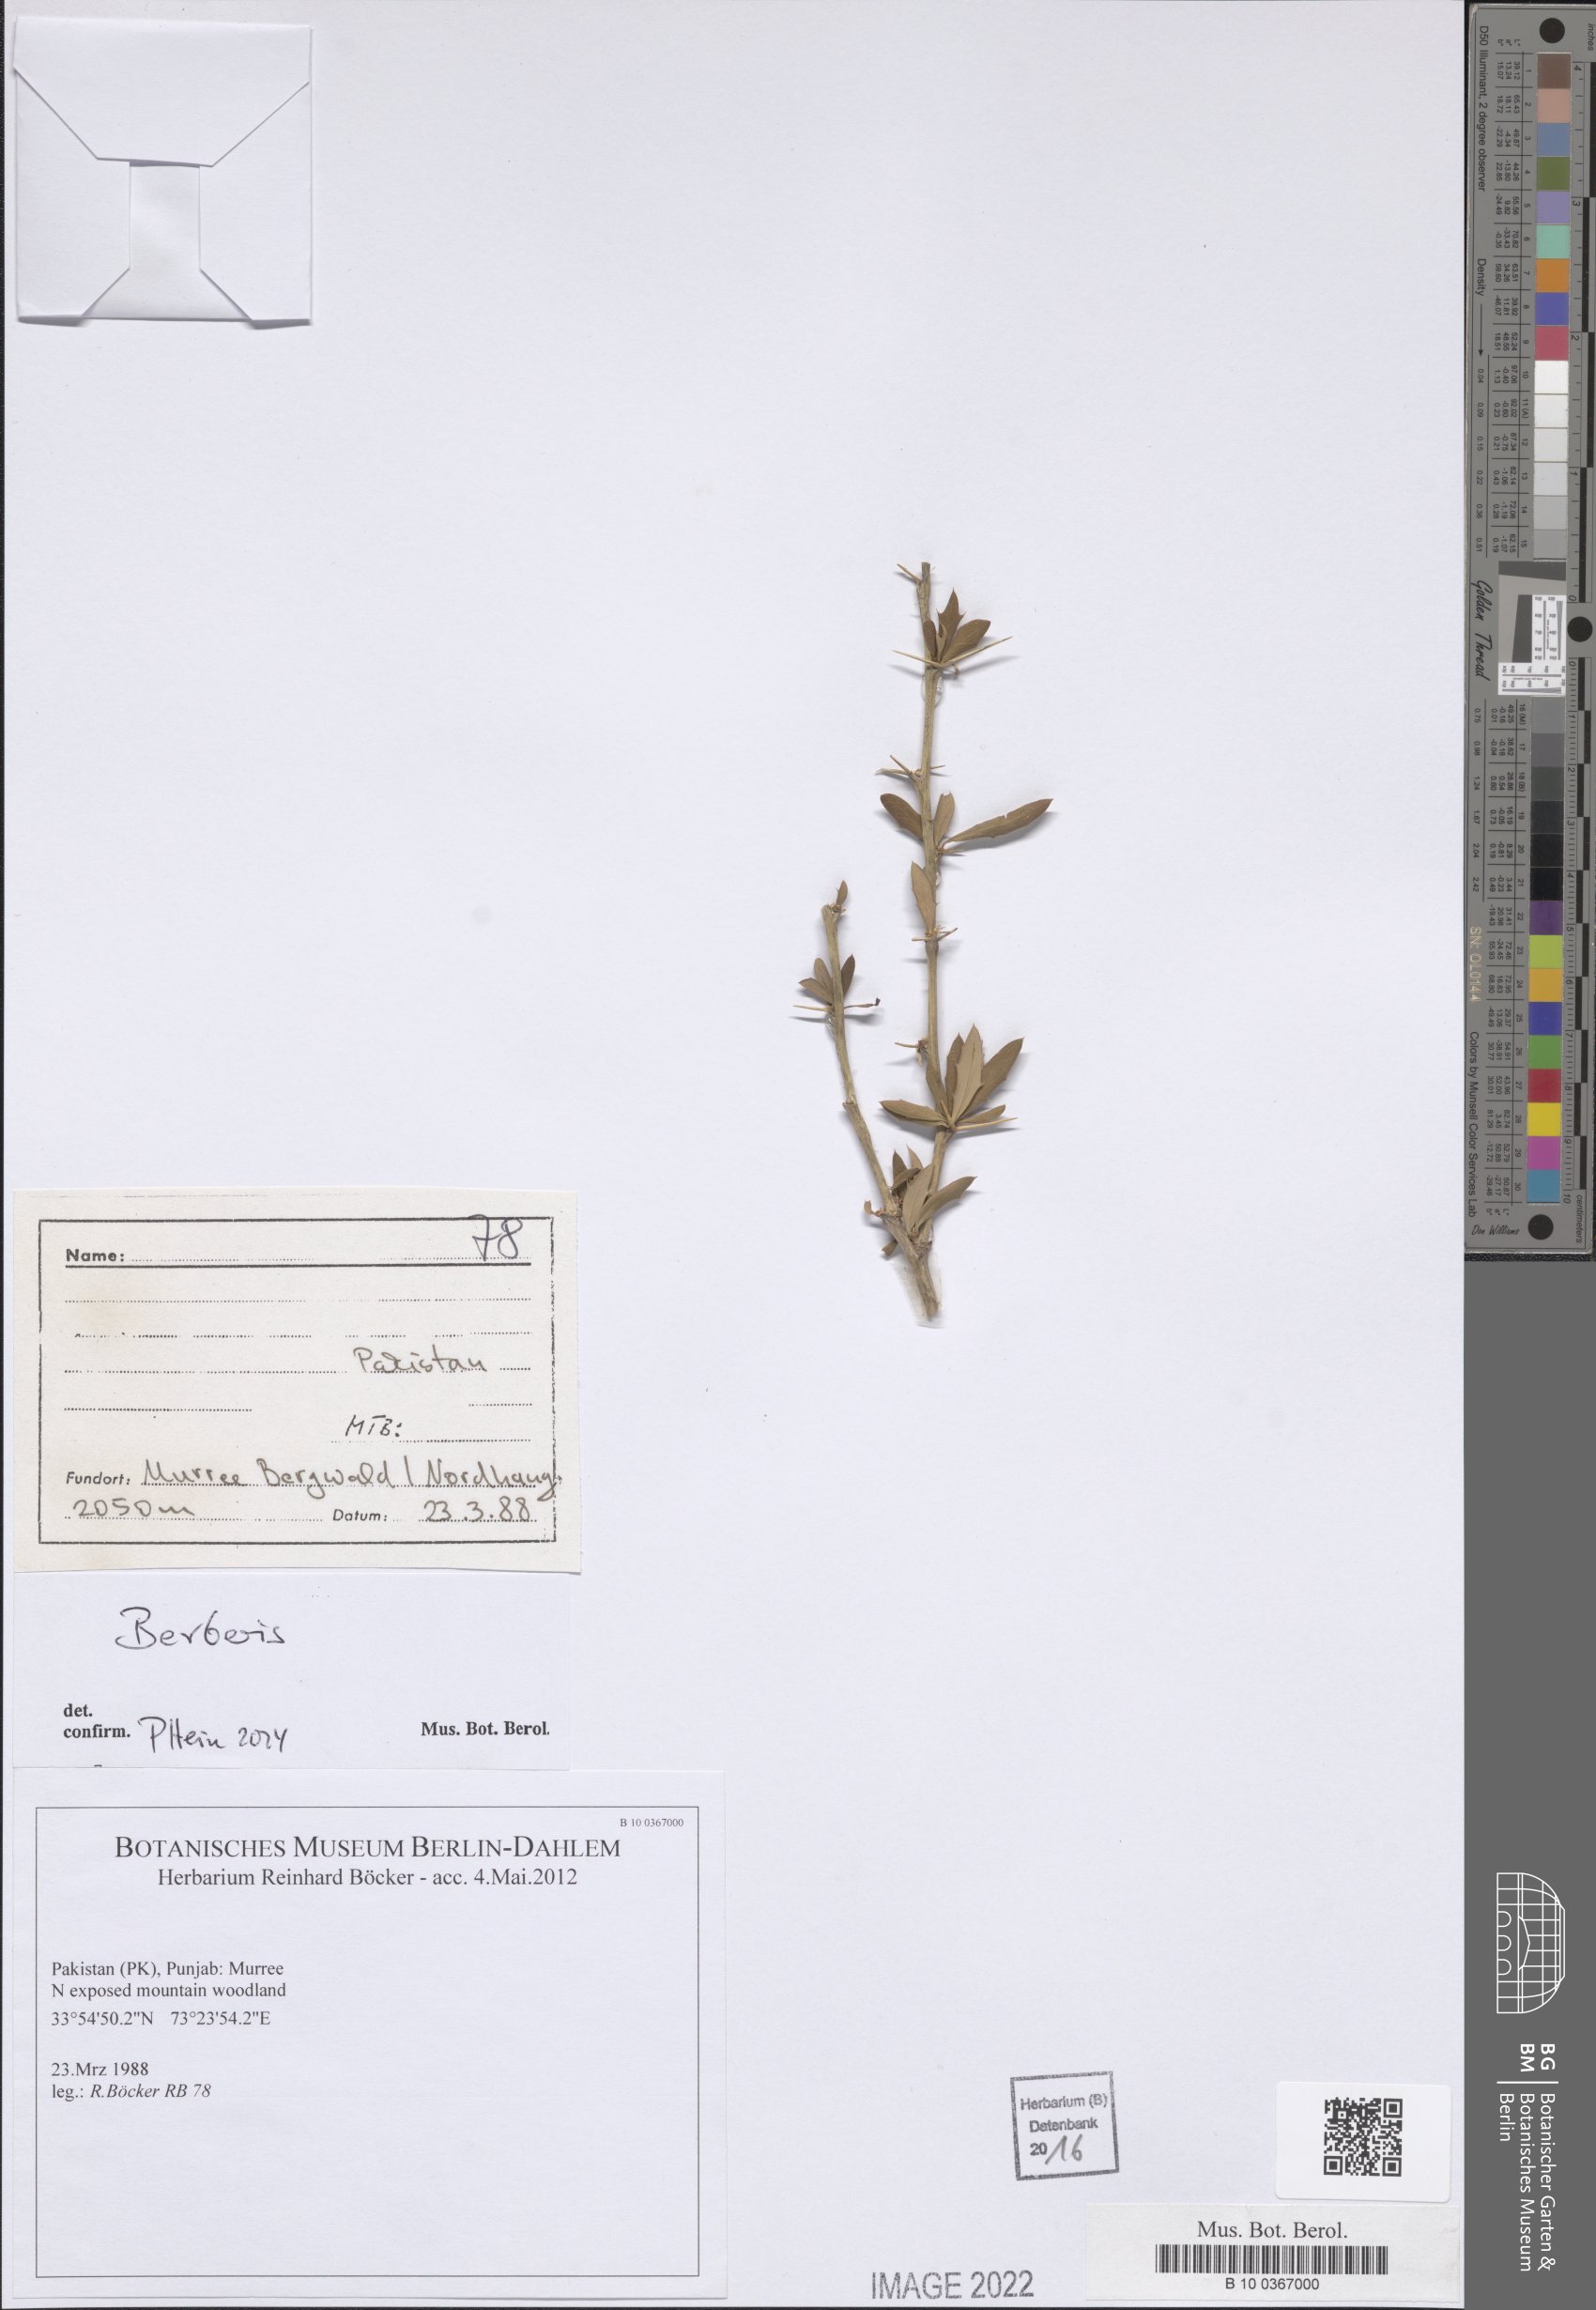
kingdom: Plantae
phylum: Tracheophyta
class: Magnoliopsida
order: Ranunculales
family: Berberidaceae
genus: Berberis
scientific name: Berberis
